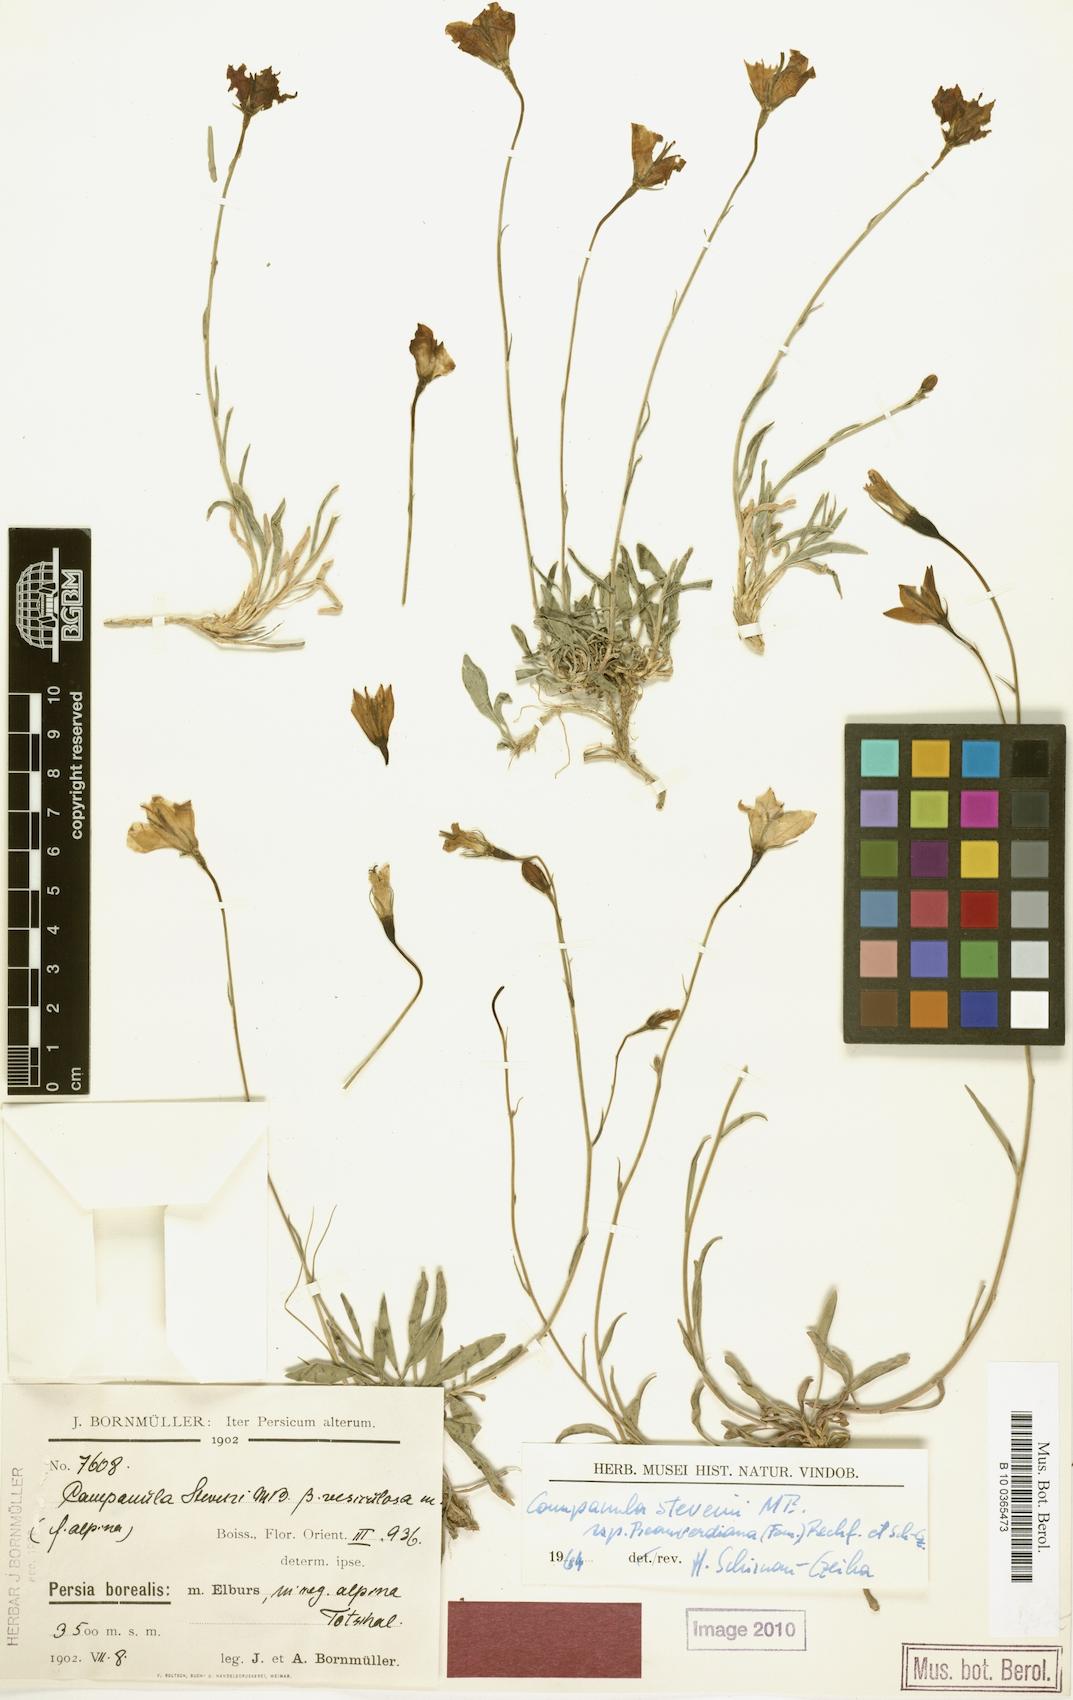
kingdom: Plantae
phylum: Tracheophyta
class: Magnoliopsida
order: Asterales
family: Campanulaceae
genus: Campanula
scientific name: Campanula stevenii
